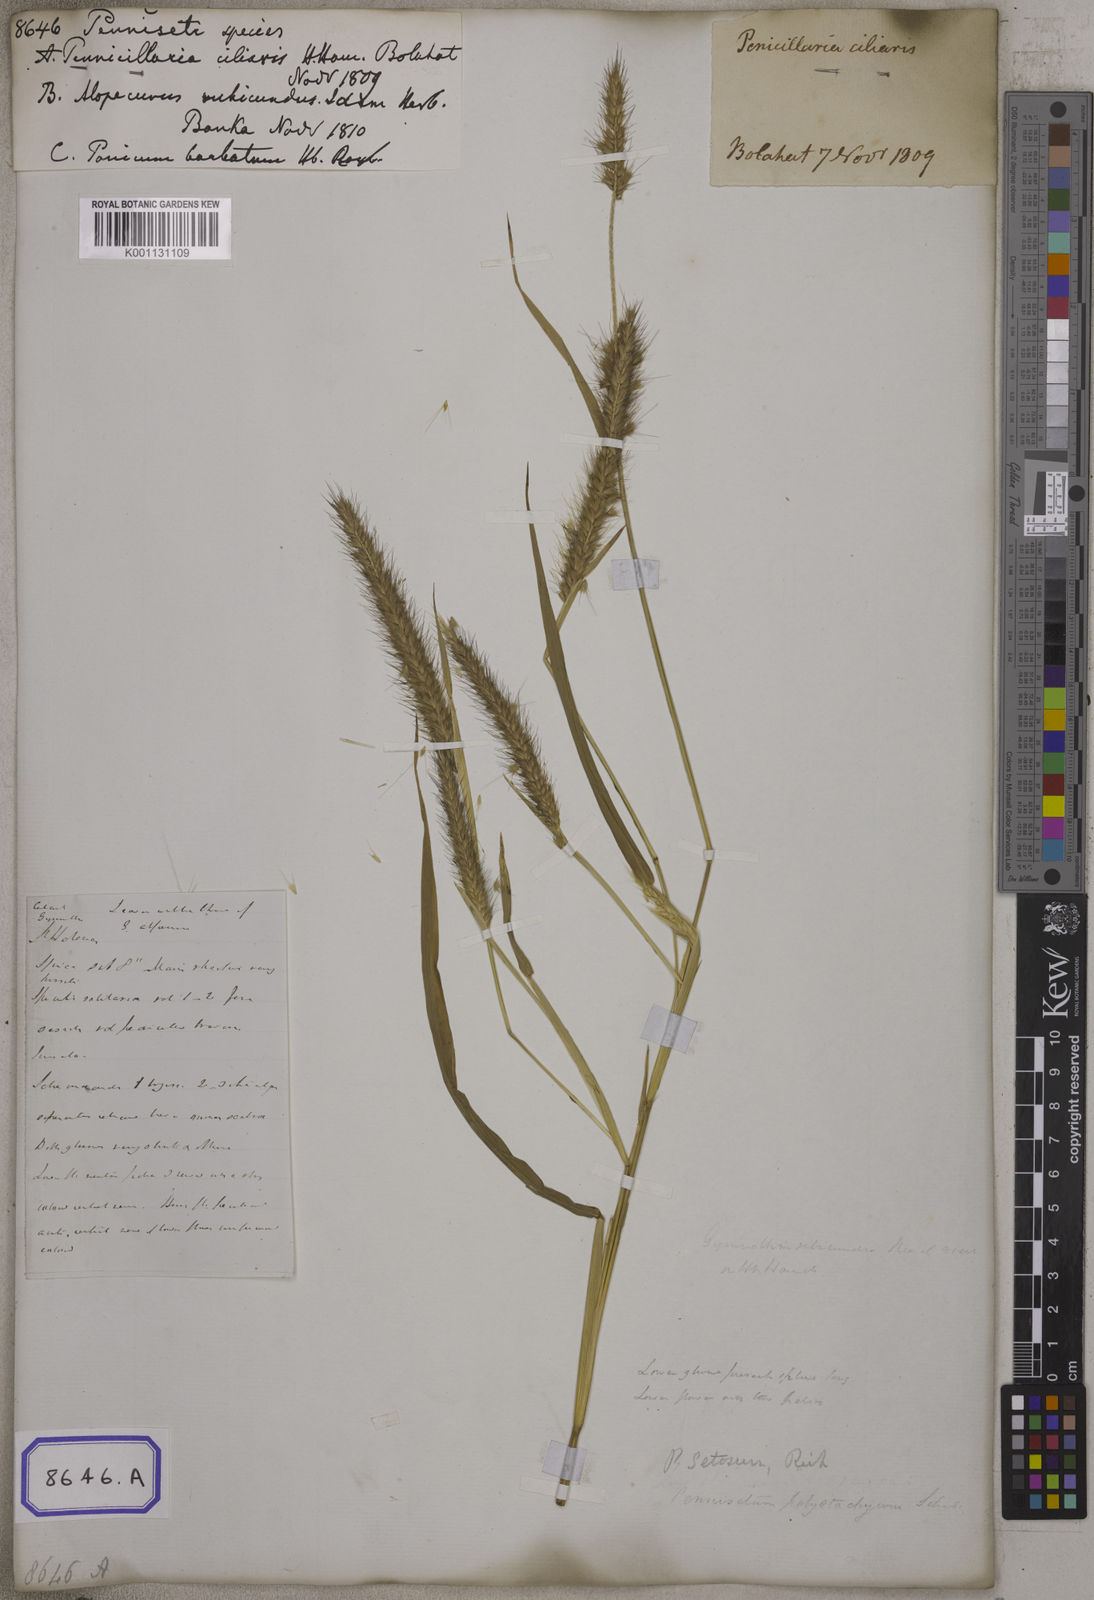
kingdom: Plantae
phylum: Tracheophyta
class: Liliopsida
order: Poales
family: Poaceae
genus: Cenchrus
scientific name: Cenchrus Pennisetum spec
